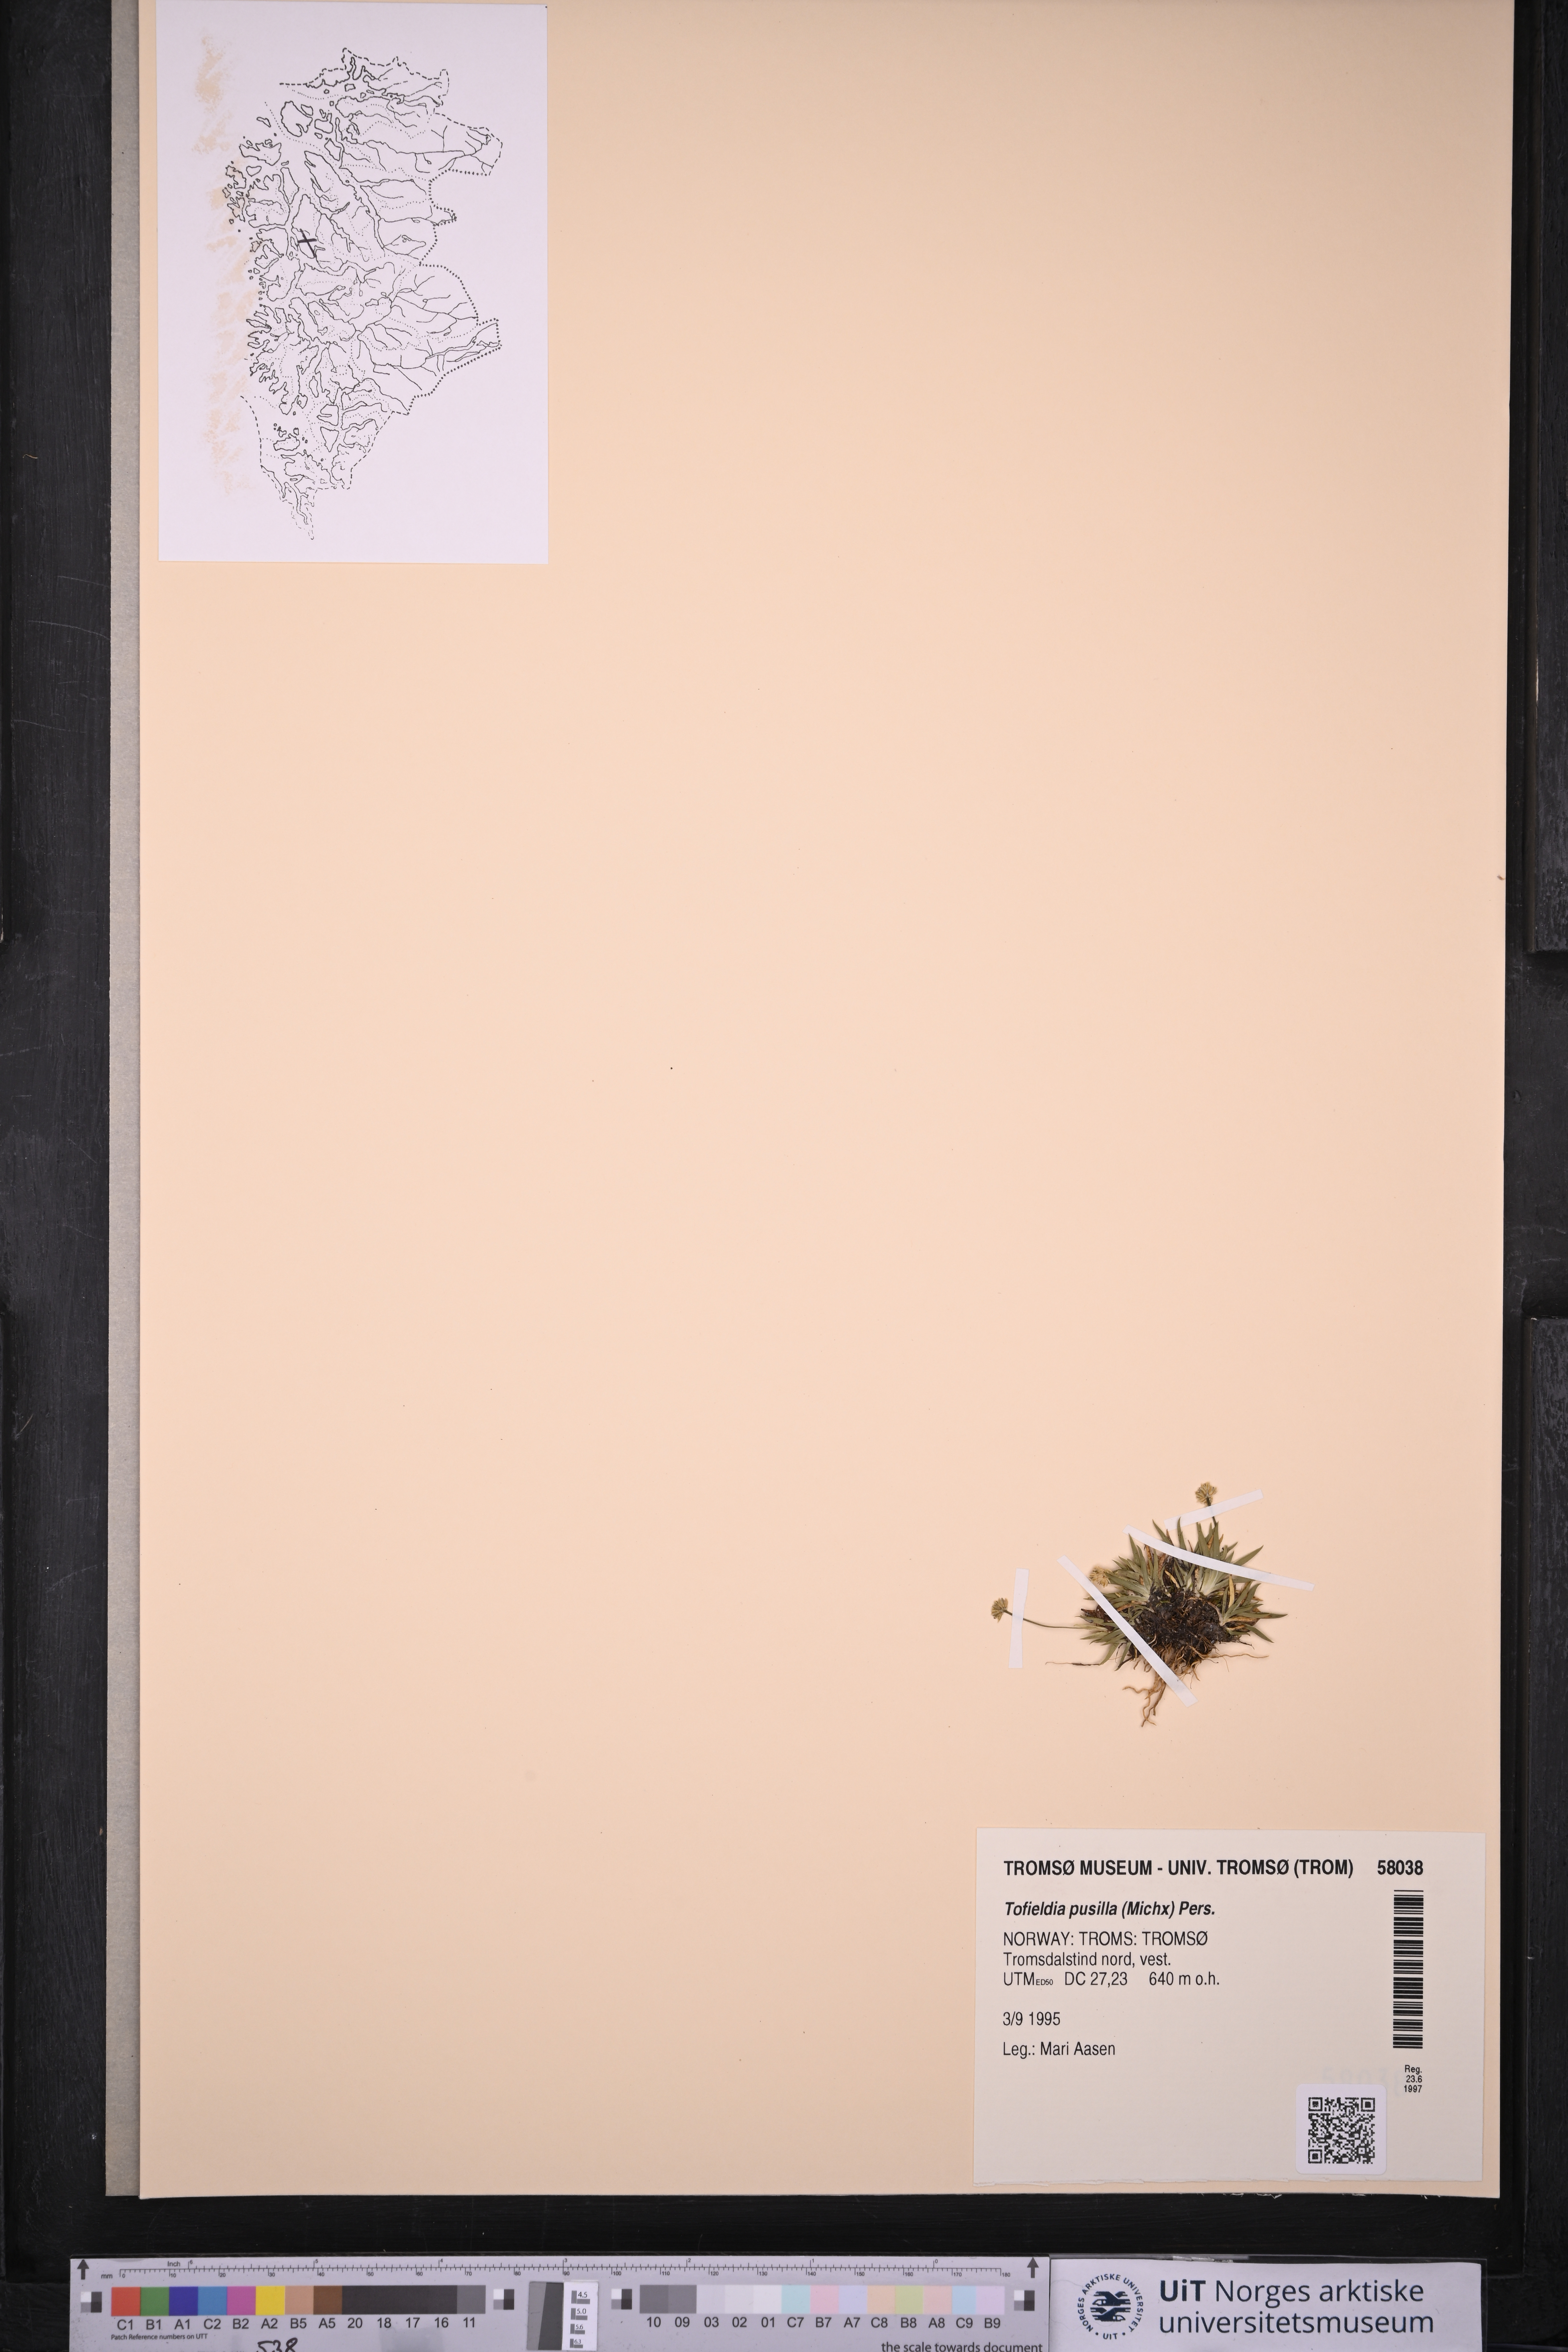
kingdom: Plantae
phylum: Tracheophyta
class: Liliopsida
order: Alismatales
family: Tofieldiaceae
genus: Tofieldia
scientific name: Tofieldia pusilla
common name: Scottish false asphodel
